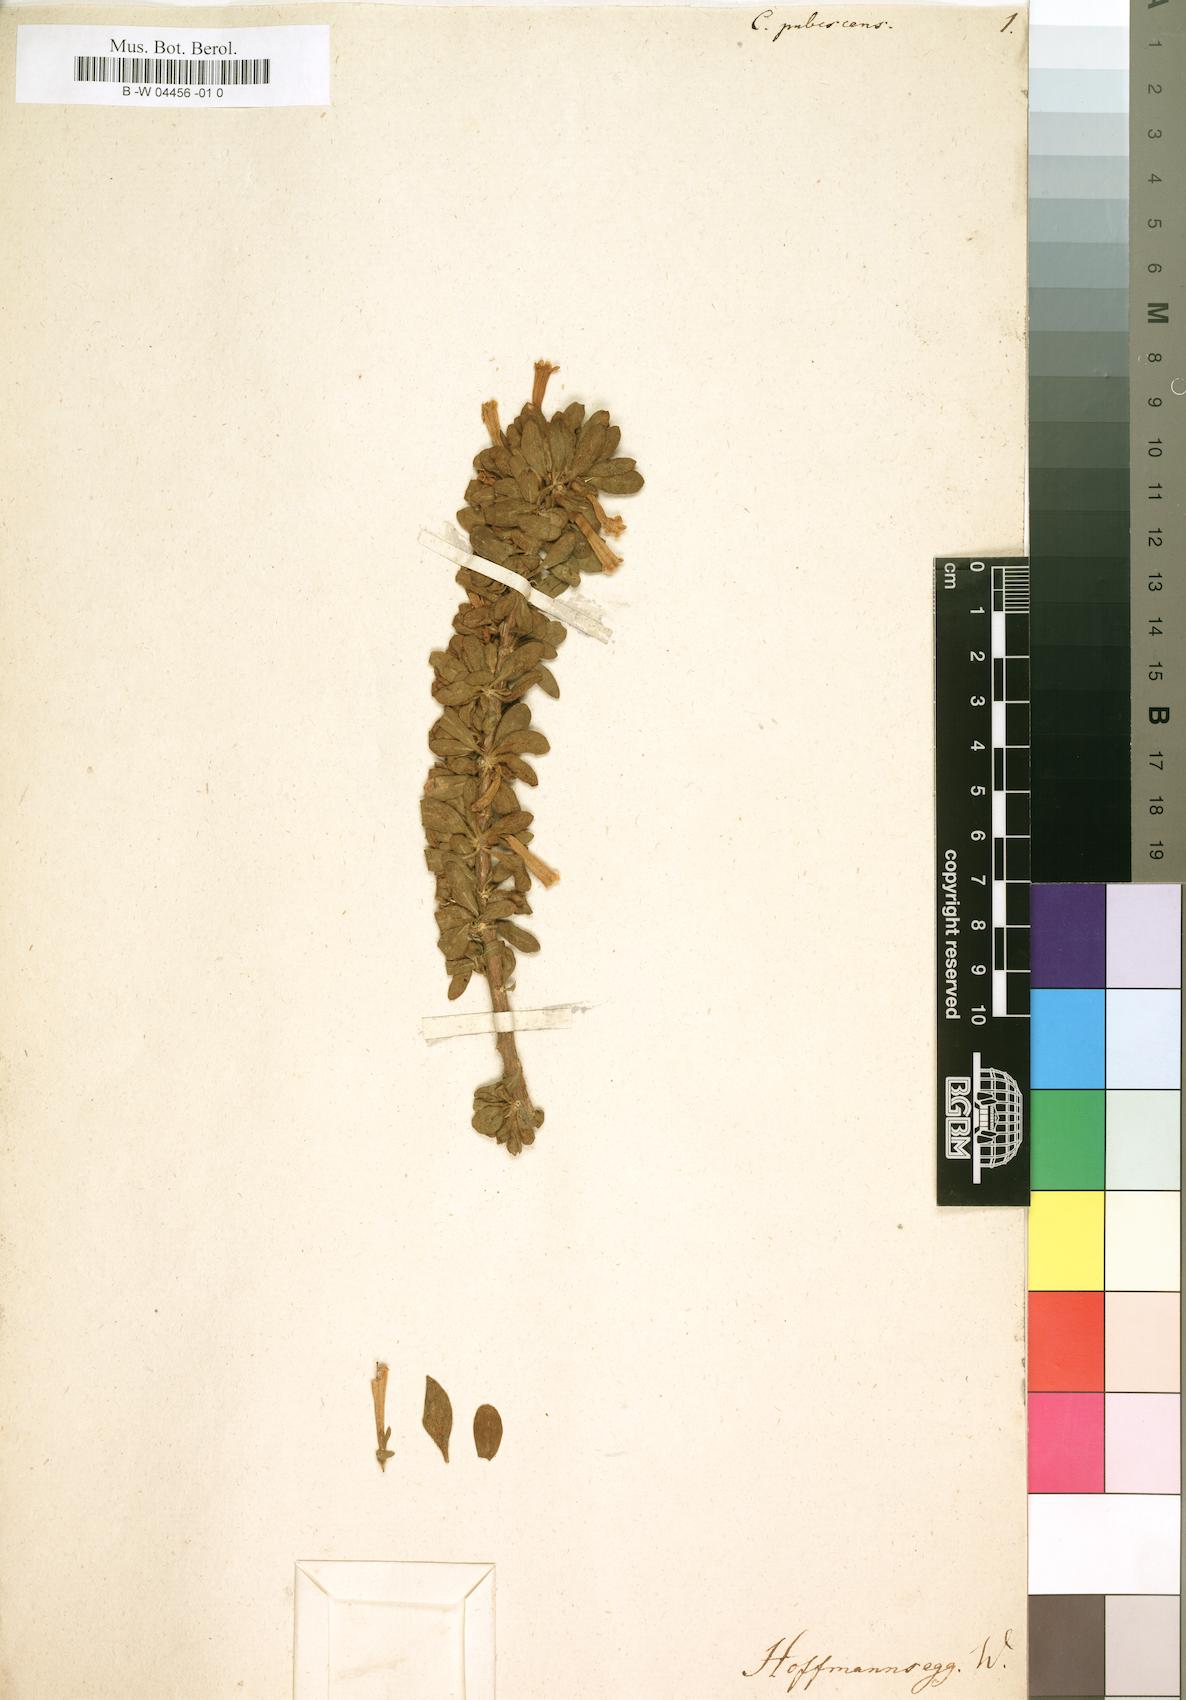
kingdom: Plantae
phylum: Tracheophyta
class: Magnoliopsida
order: Solanales
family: Solanaceae
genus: Lycium
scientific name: Lycium cinereum
